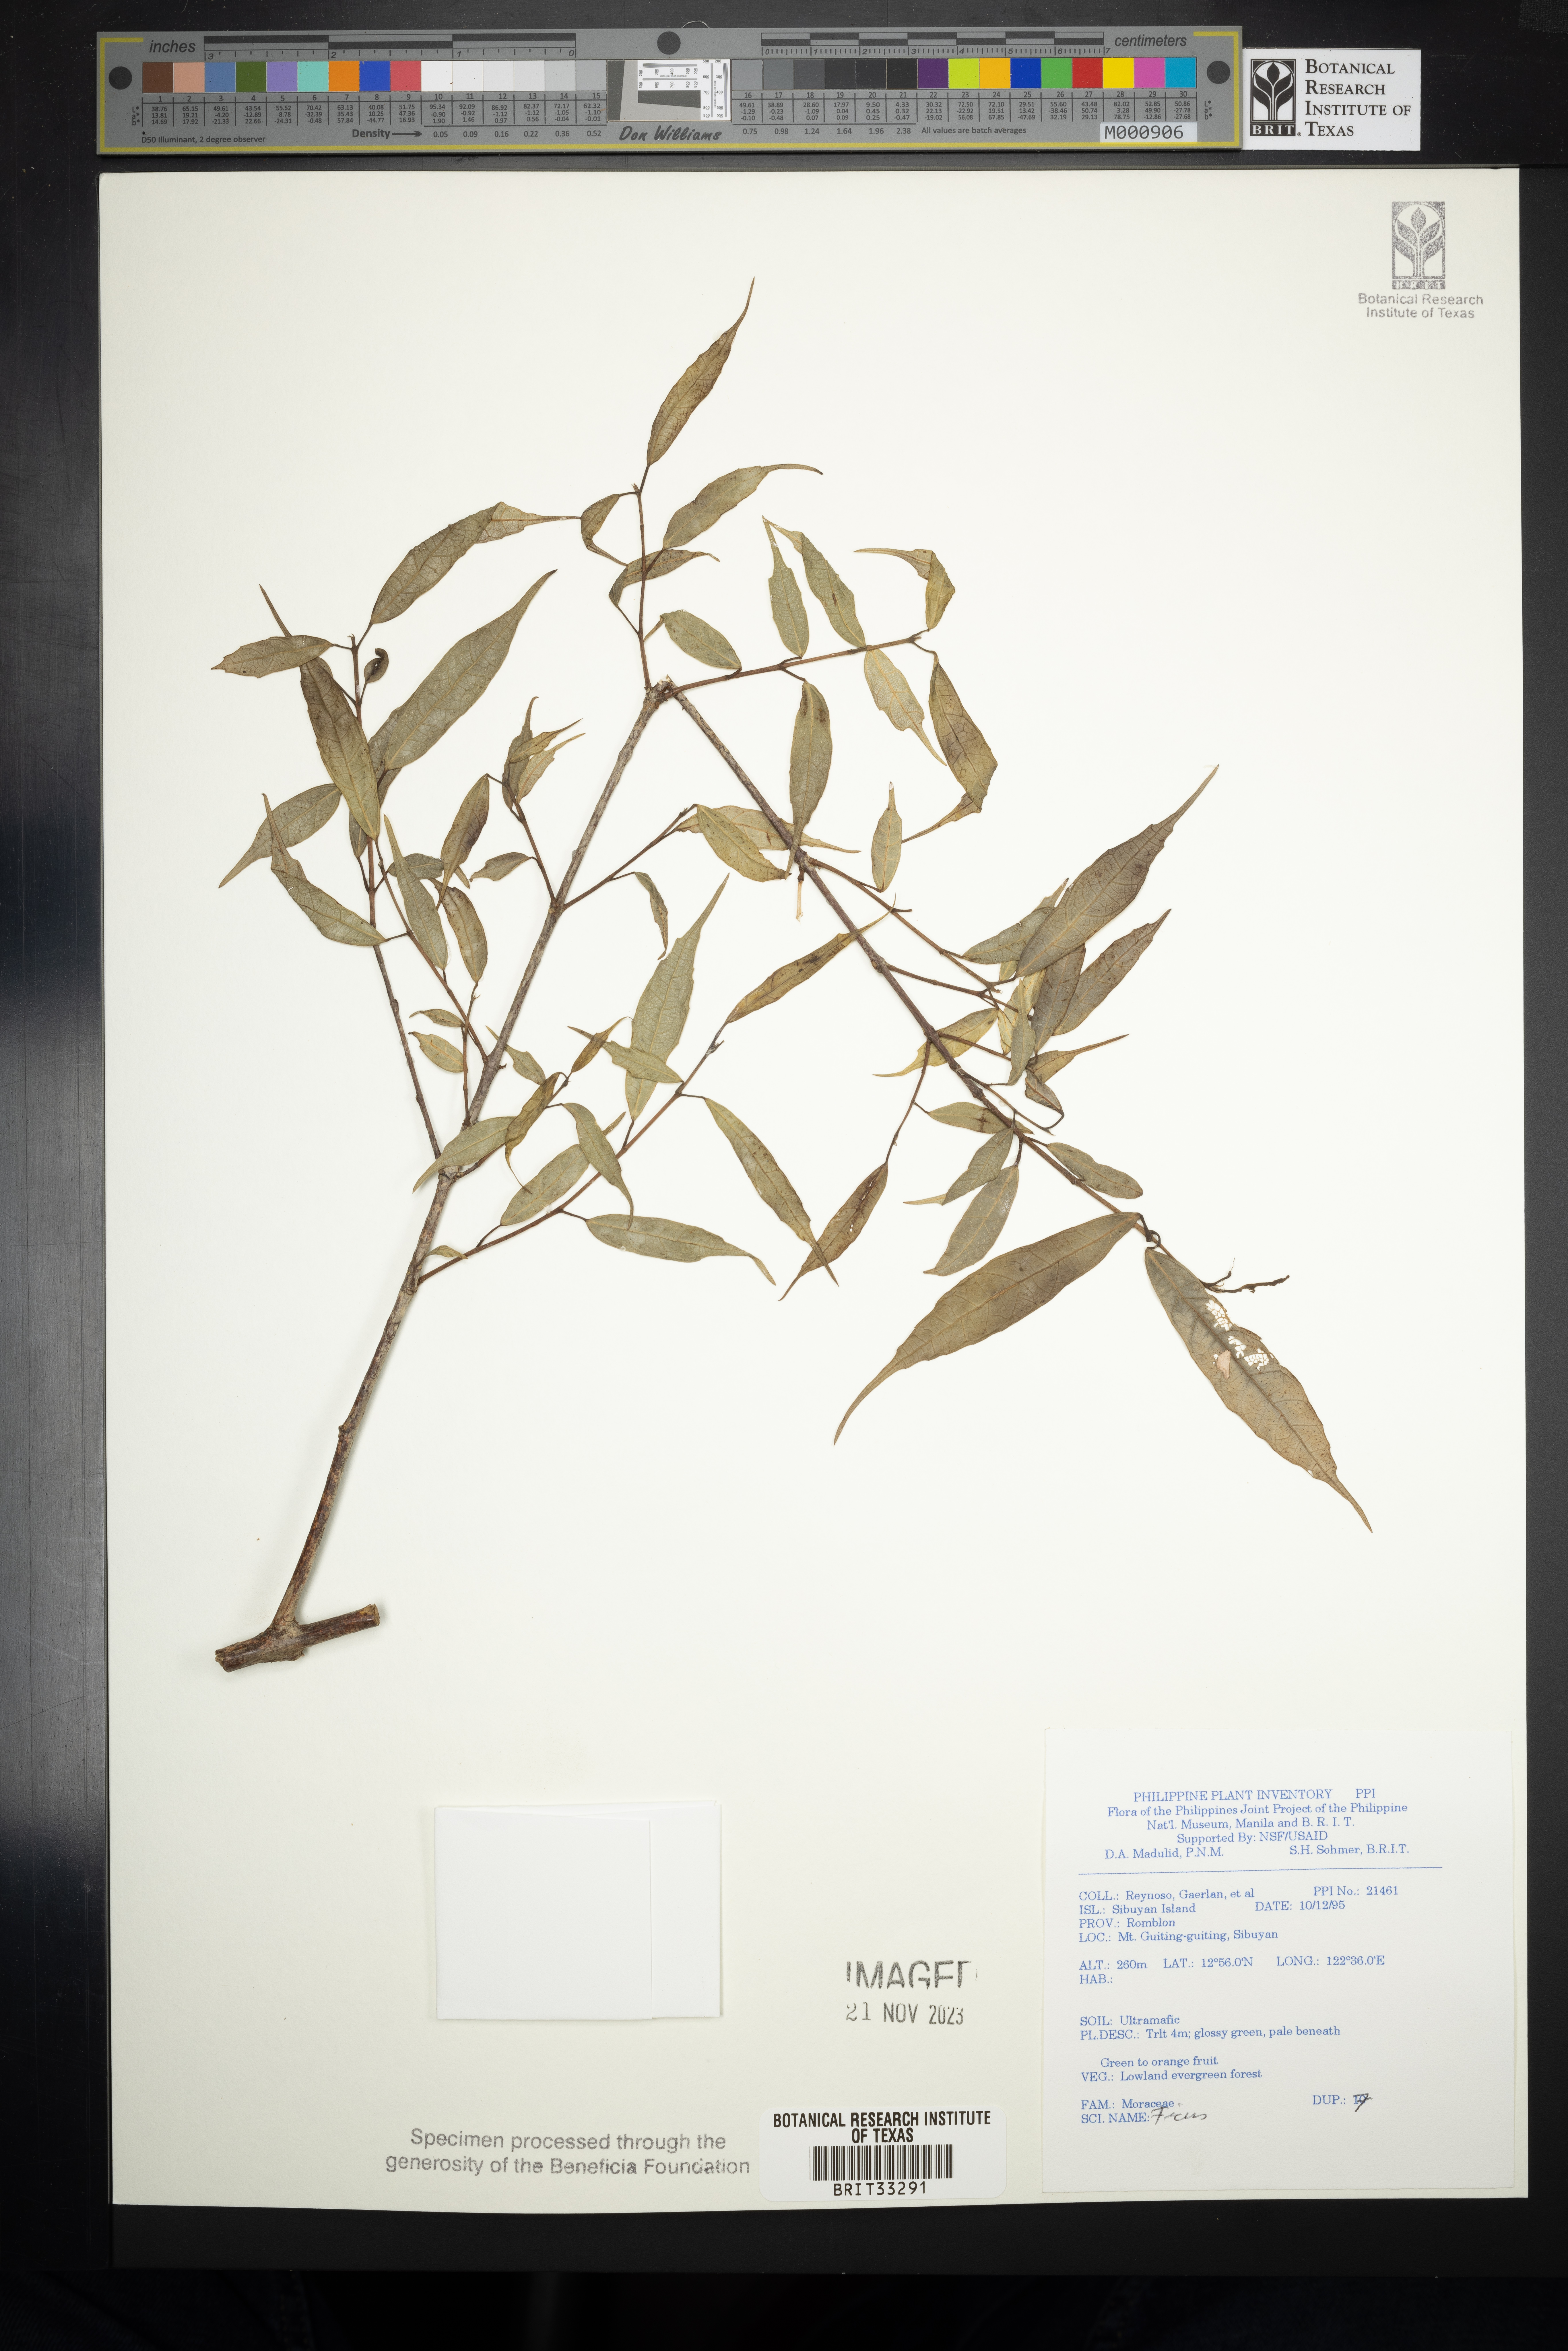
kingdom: Plantae
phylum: Tracheophyta
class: Magnoliopsida
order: Rosales
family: Moraceae
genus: Ficus
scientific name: Ficus
